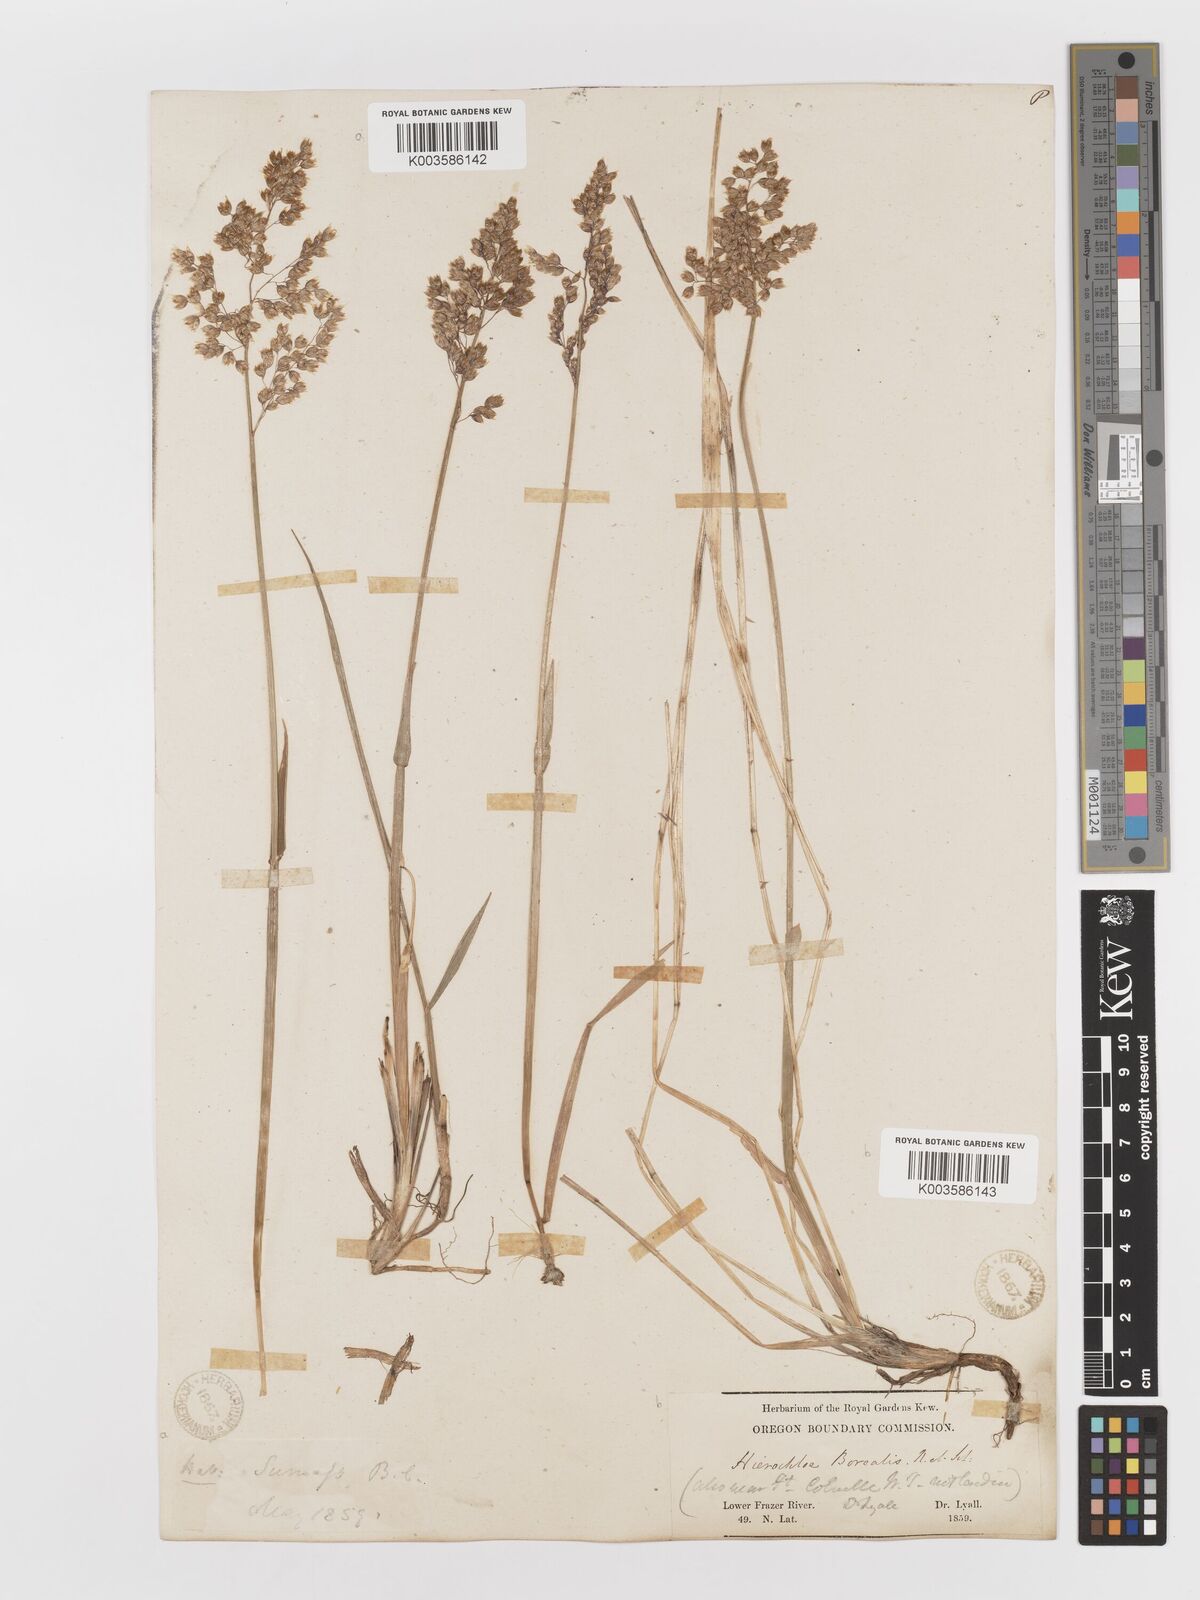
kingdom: Plantae
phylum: Tracheophyta
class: Liliopsida
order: Poales
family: Poaceae
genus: Anthoxanthum
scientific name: Anthoxanthum nitens
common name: Holy grass
